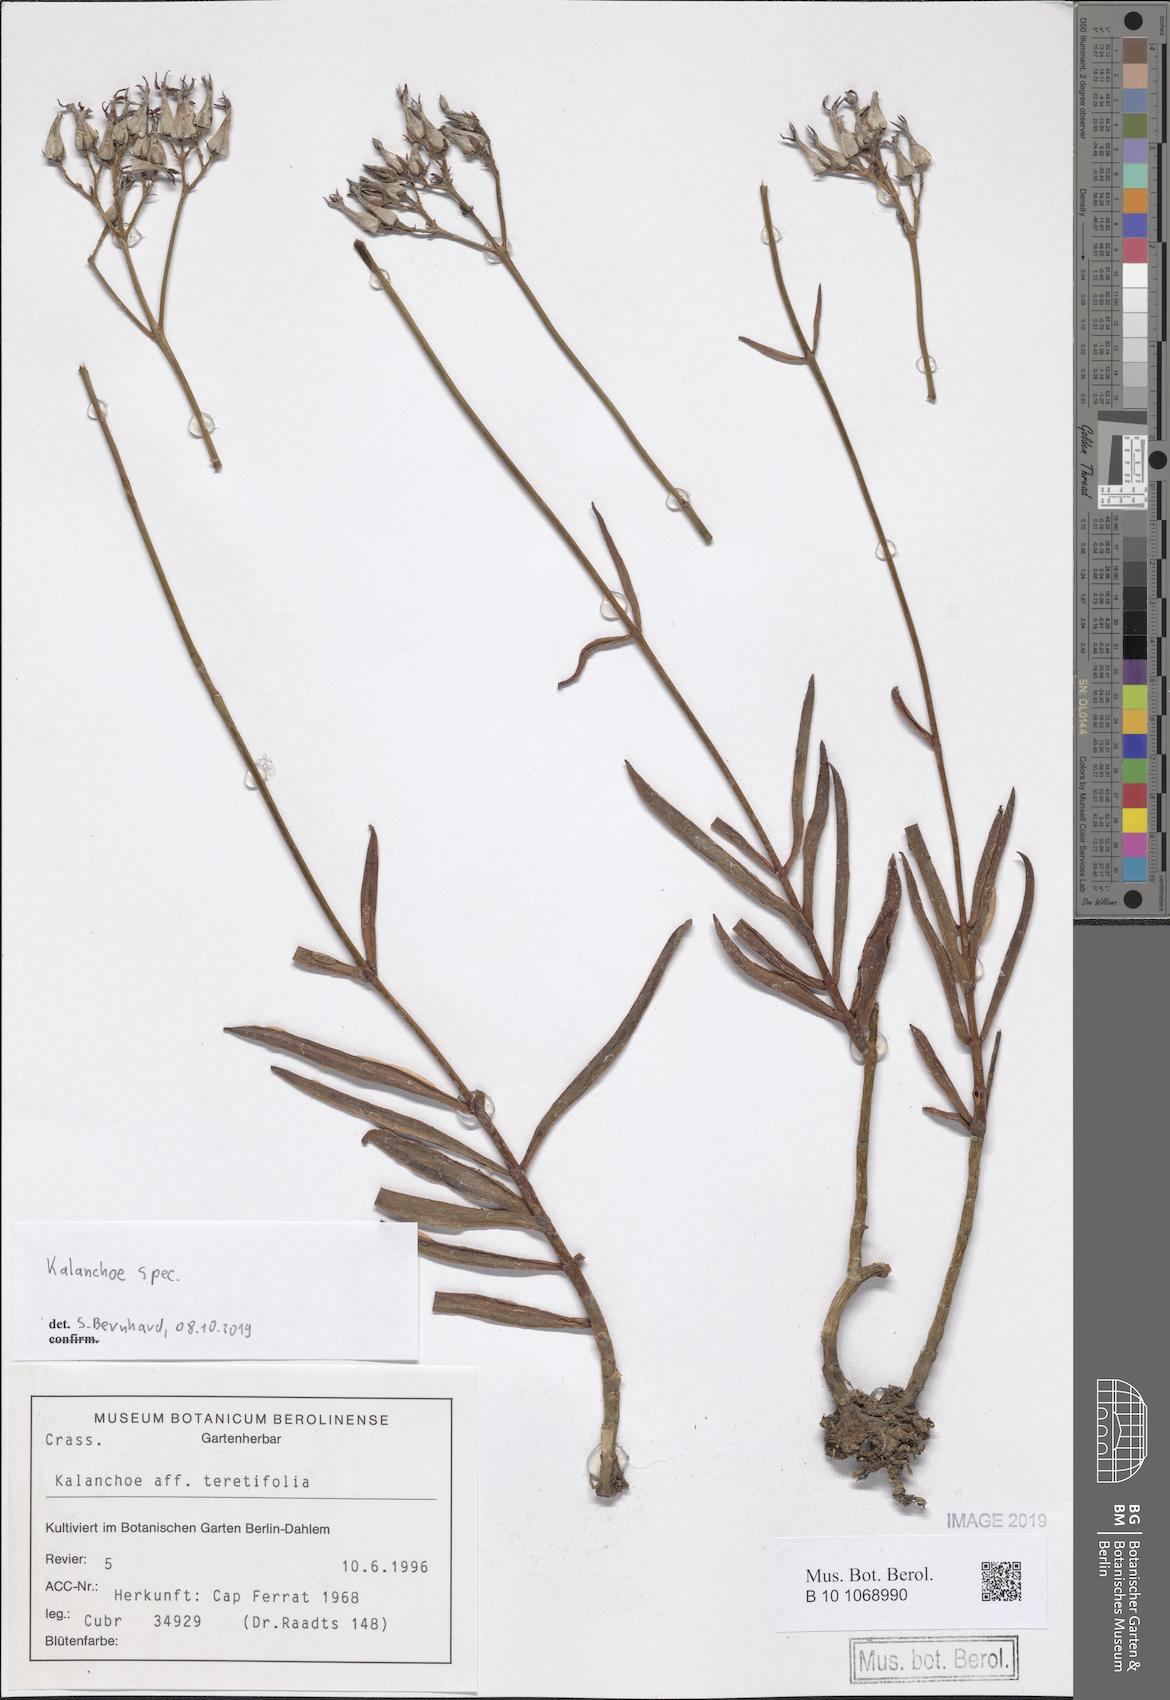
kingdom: Plantae
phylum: Tracheophyta
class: Magnoliopsida
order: Saxifragales
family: Crassulaceae
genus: Kalanchoe
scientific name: Kalanchoe
